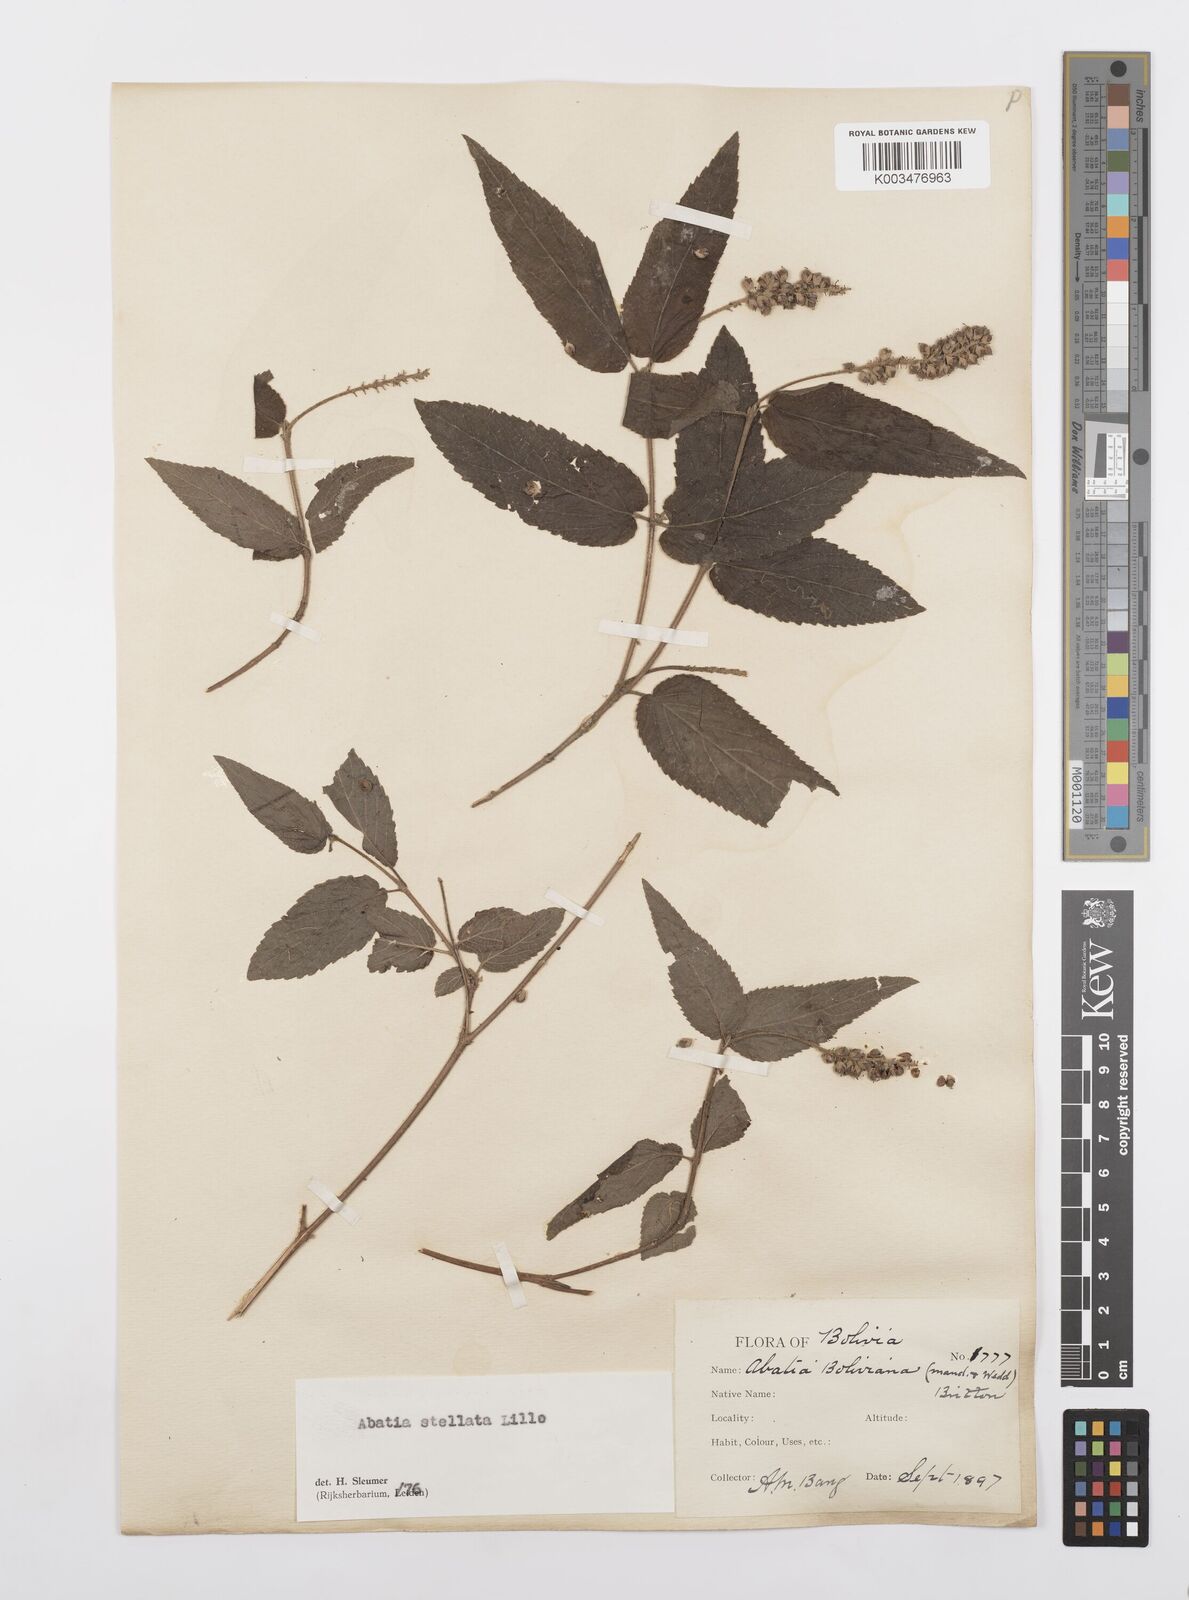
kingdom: Plantae
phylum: Tracheophyta
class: Magnoliopsida
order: Malpighiales
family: Salicaceae
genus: Abatia
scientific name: Abatia stellata
